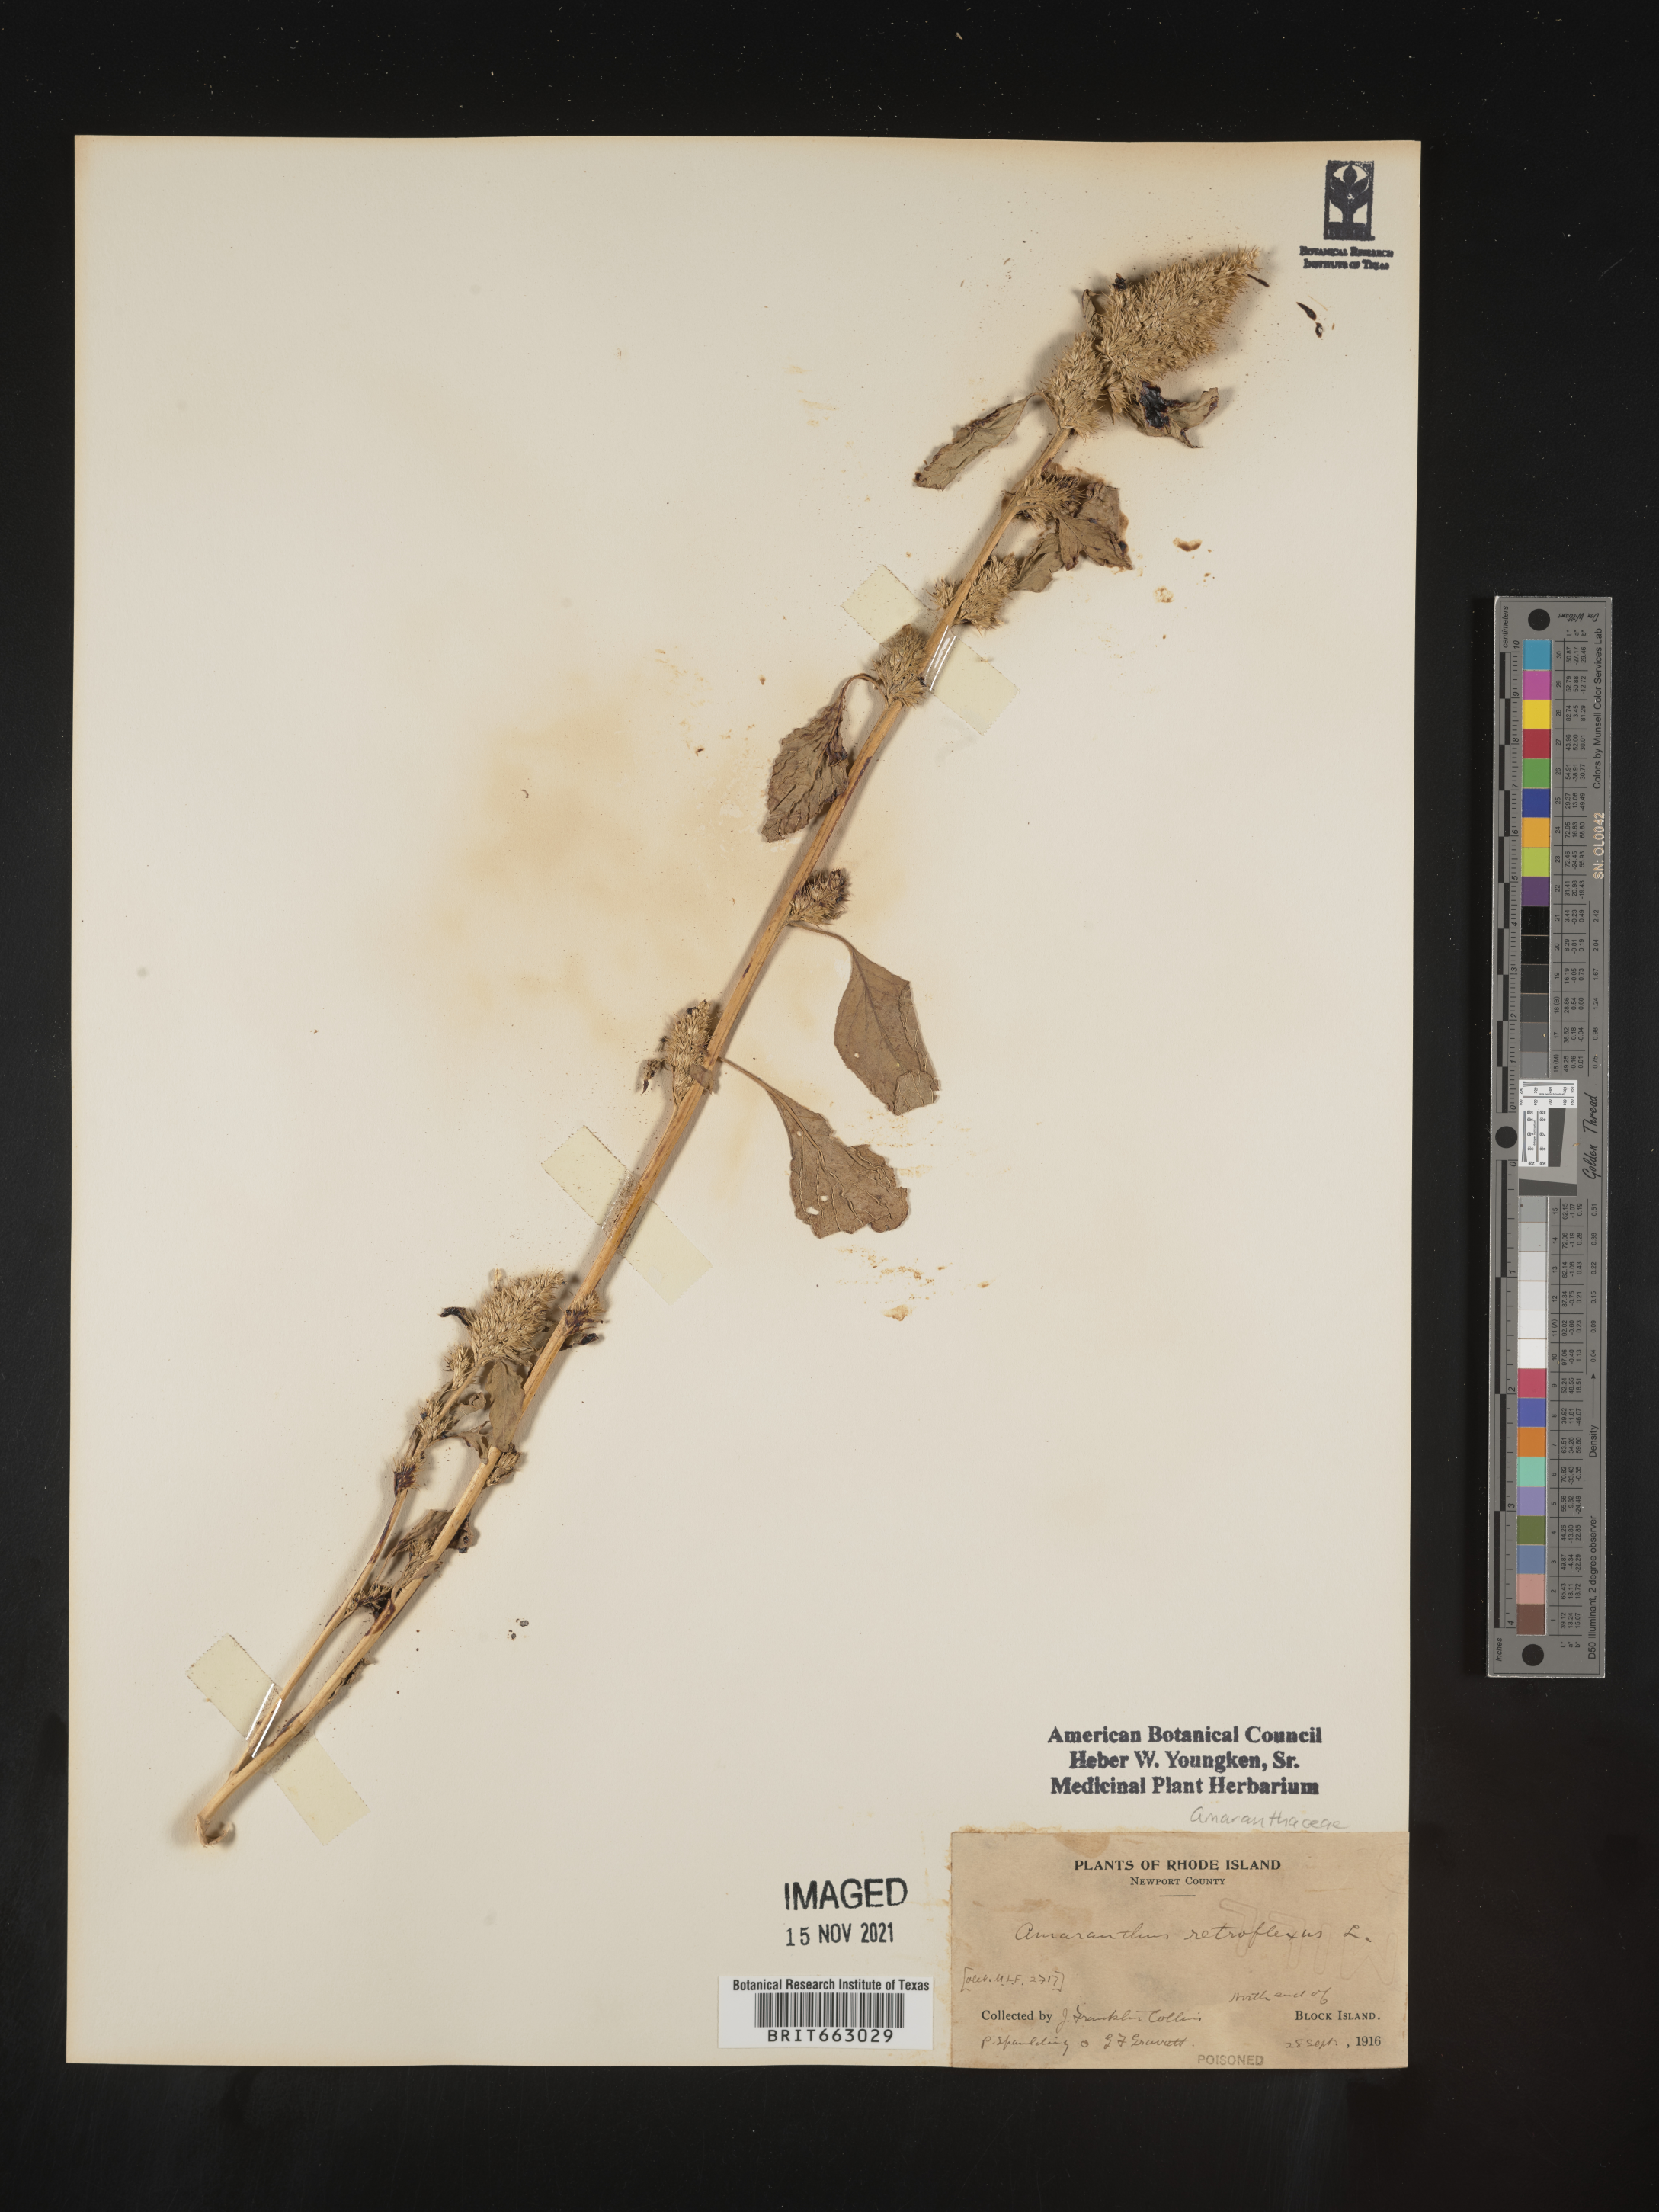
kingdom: Plantae
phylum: Tracheophyta
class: Magnoliopsida
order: Caryophyllales
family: Amaranthaceae
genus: Amaranthus
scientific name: Amaranthus retroflexus
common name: Redroot amaranth
